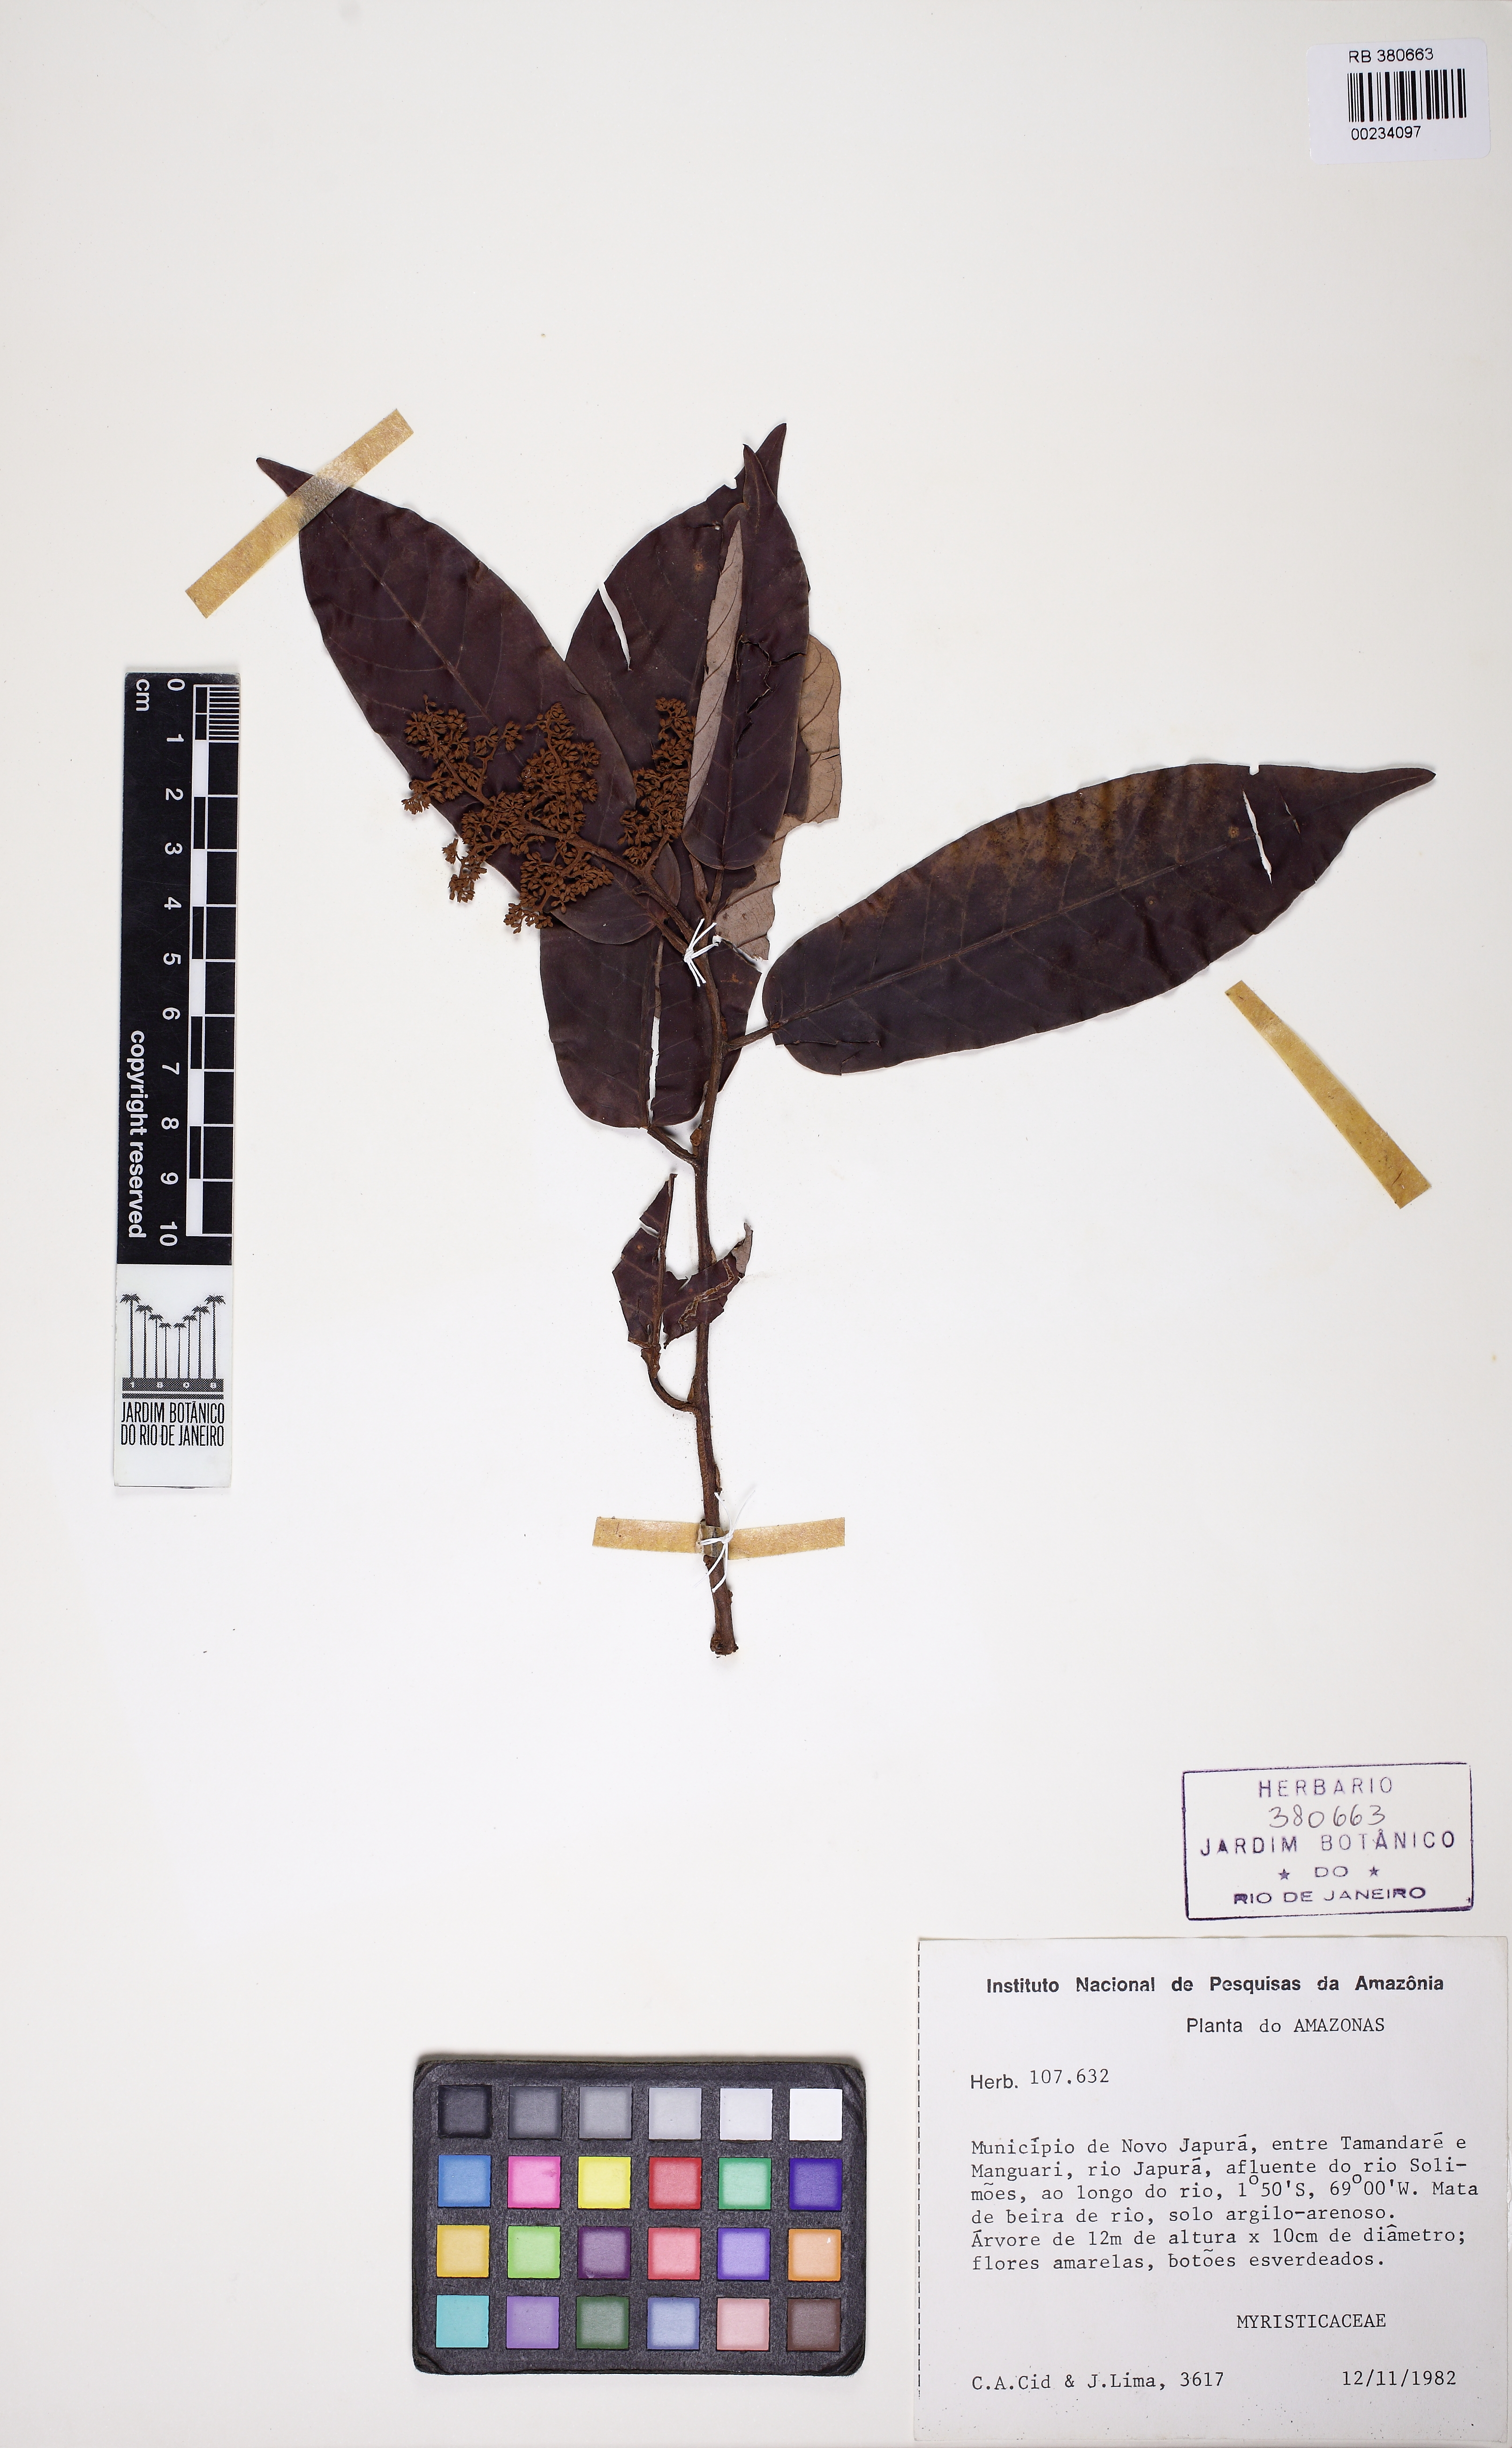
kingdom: Plantae
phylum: Tracheophyta
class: Magnoliopsida
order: Magnoliales
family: Myristicaceae
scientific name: Myristicaceae
